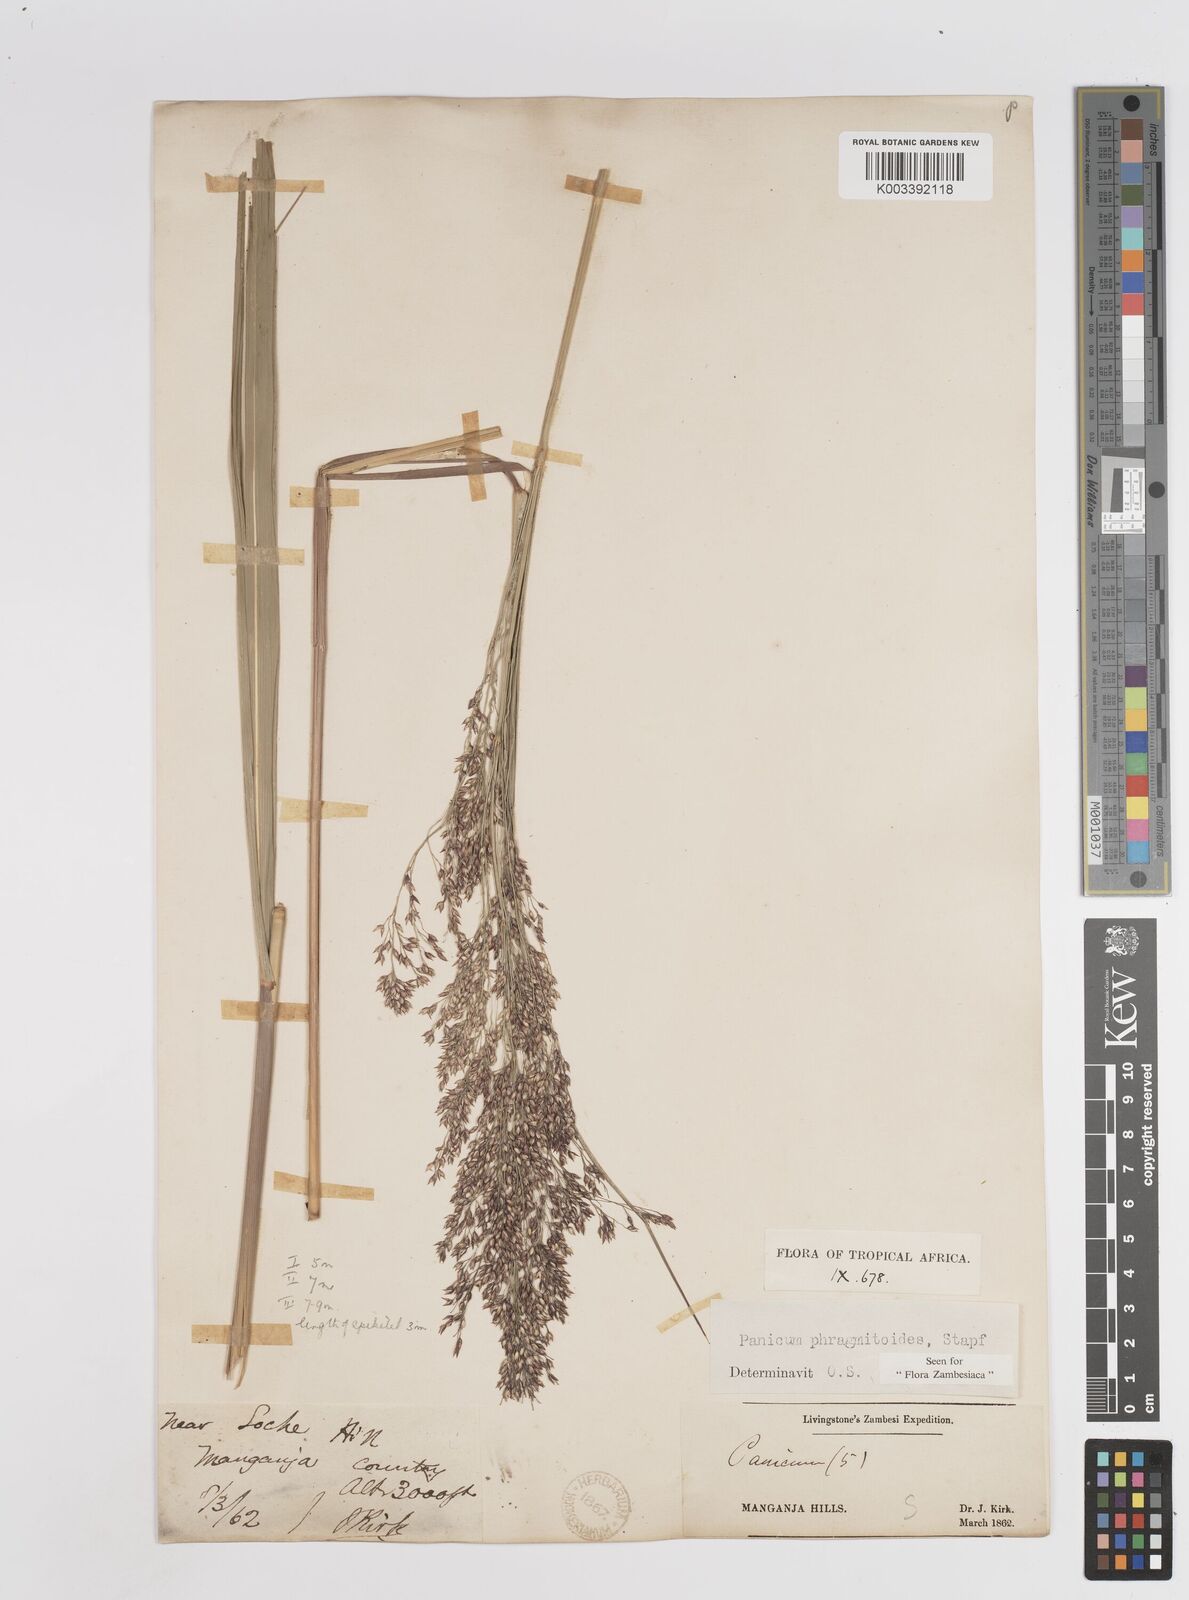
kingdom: Plantae
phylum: Tracheophyta
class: Liliopsida
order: Poales
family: Poaceae
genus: Panicum
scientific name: Panicum phragmitoides
